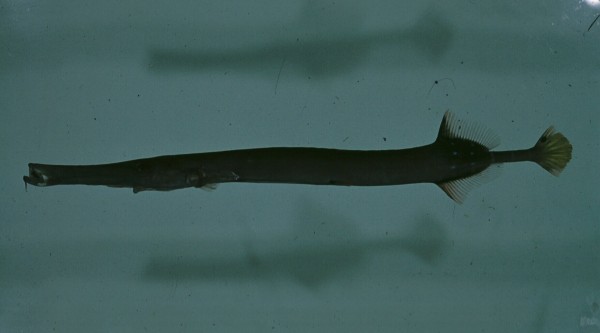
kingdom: Animalia
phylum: Chordata
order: Syngnathiformes
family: Aulostomidae
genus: Aulostomus
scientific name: Aulostomus chinensis
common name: Chinese trumpetfish
